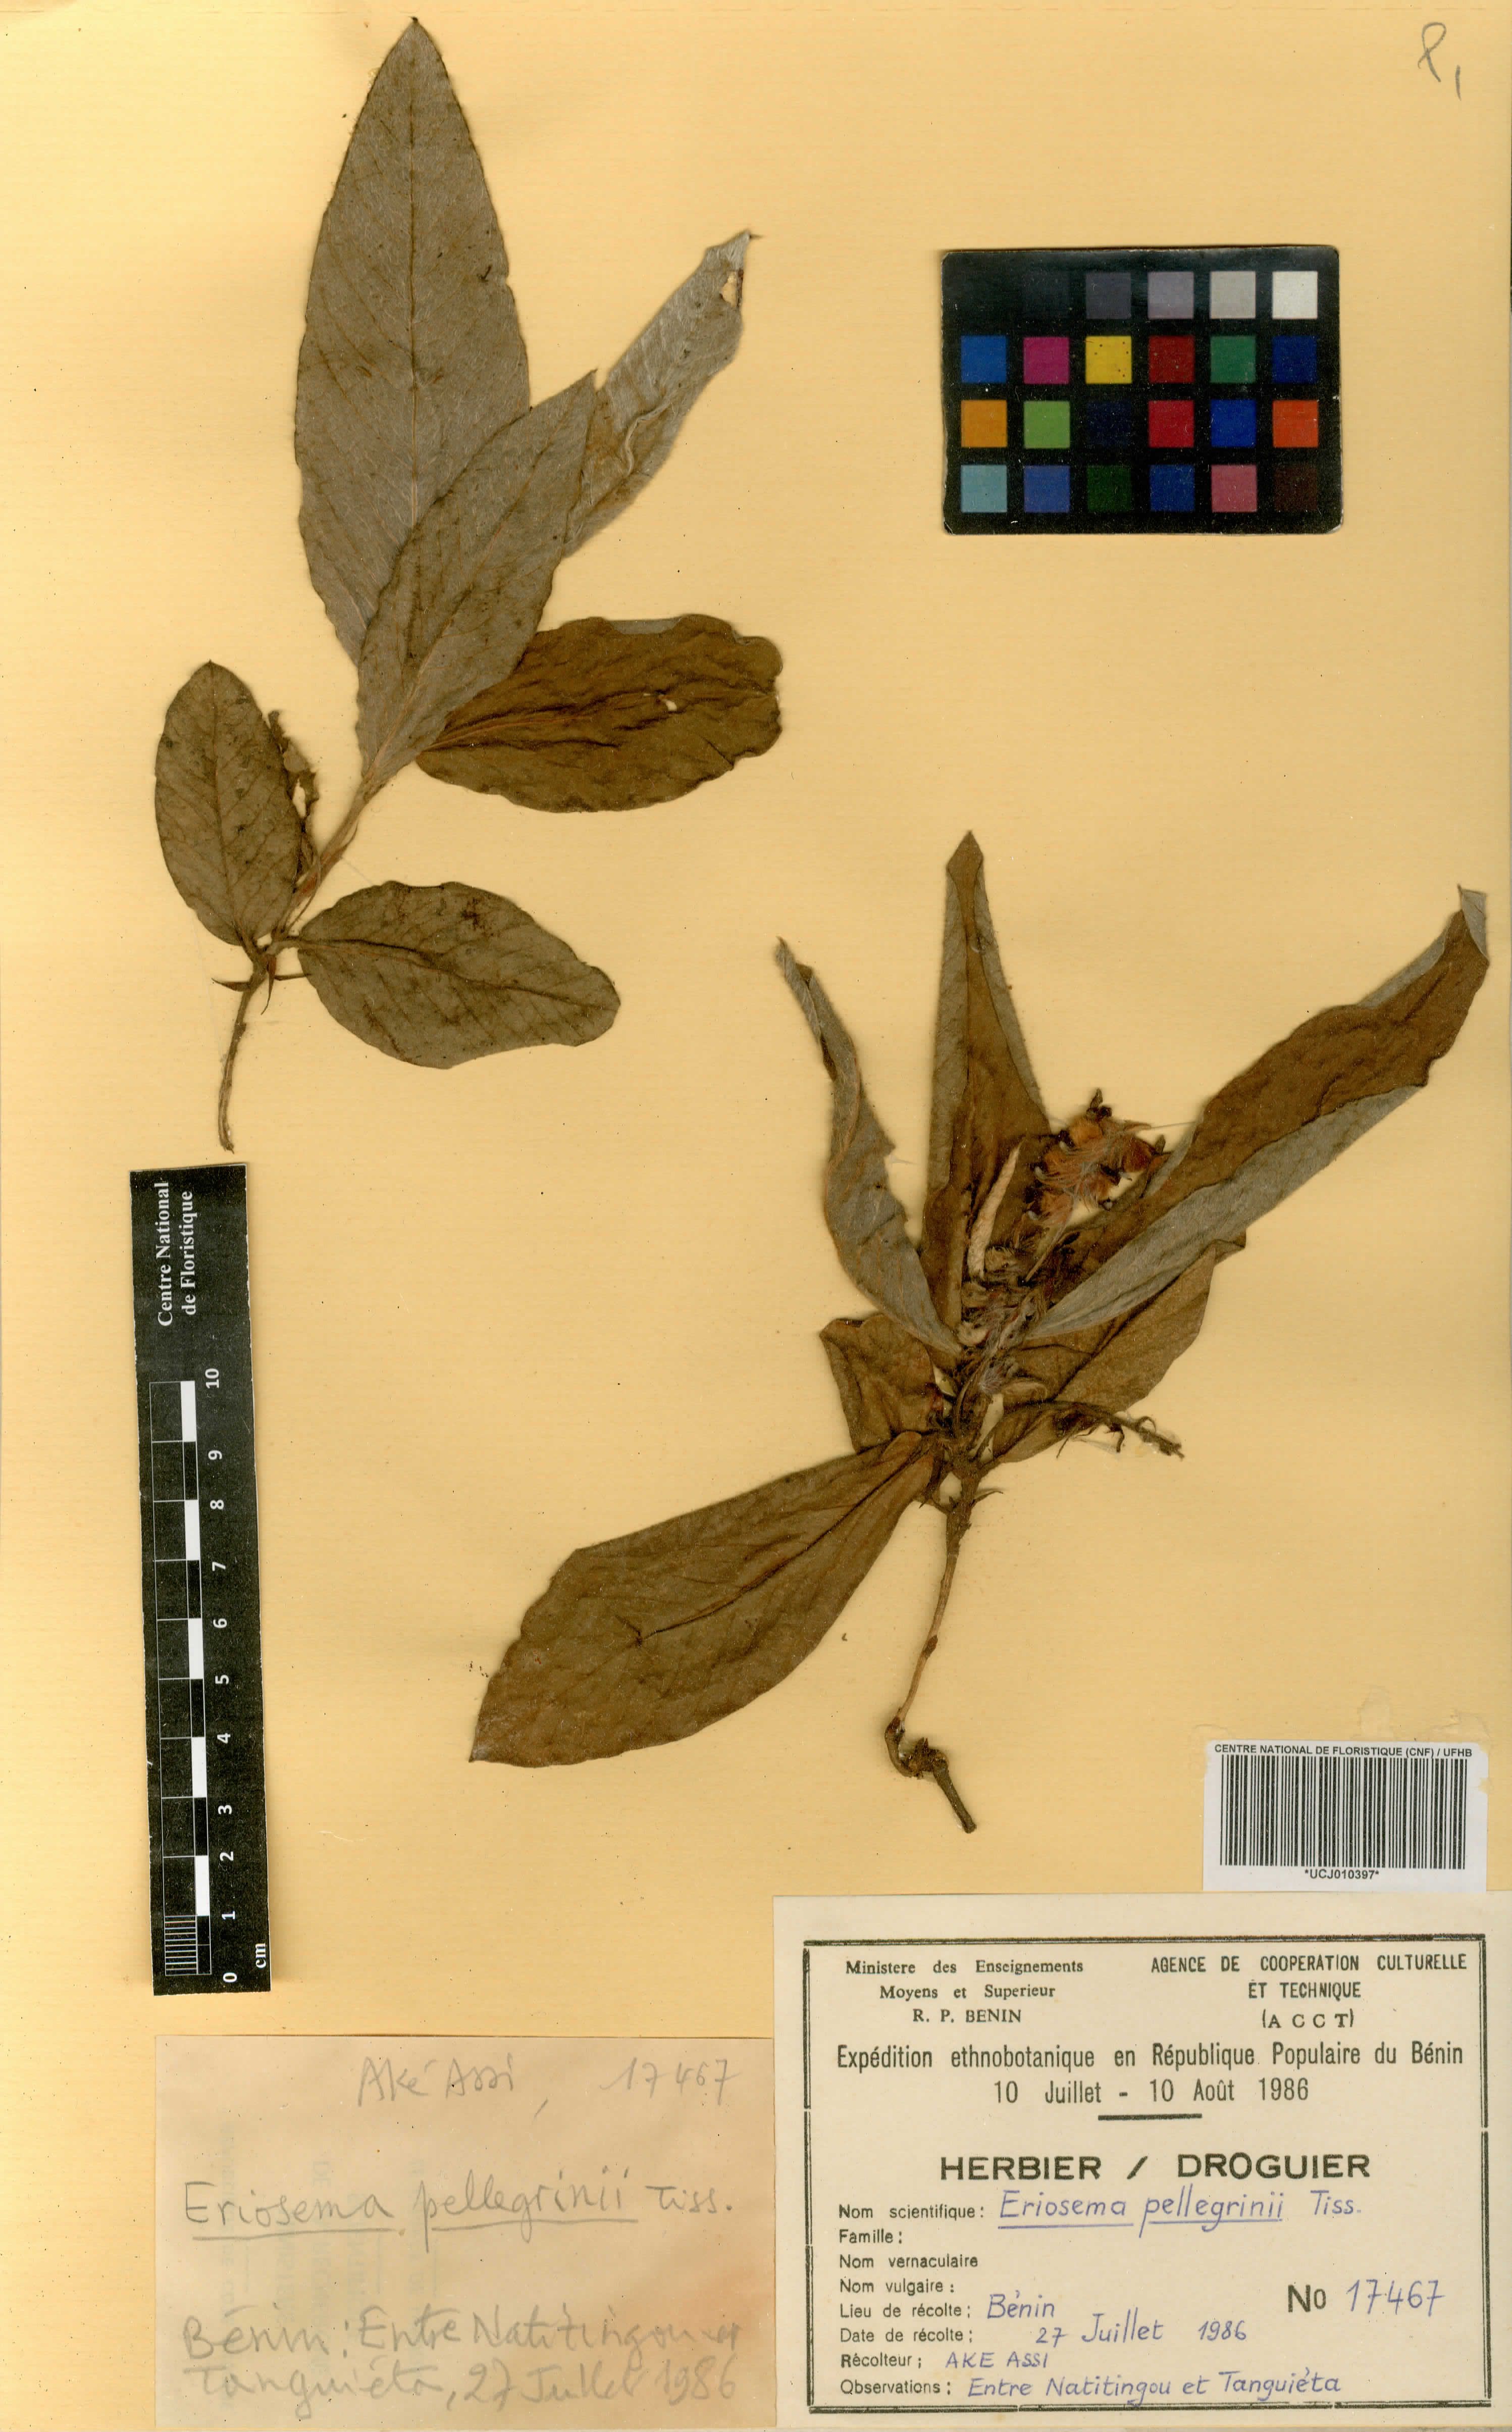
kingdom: Plantae
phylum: Tracheophyta
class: Magnoliopsida
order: Fabales
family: Fabaceae
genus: Eriosema
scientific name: Eriosema pellegrinii
